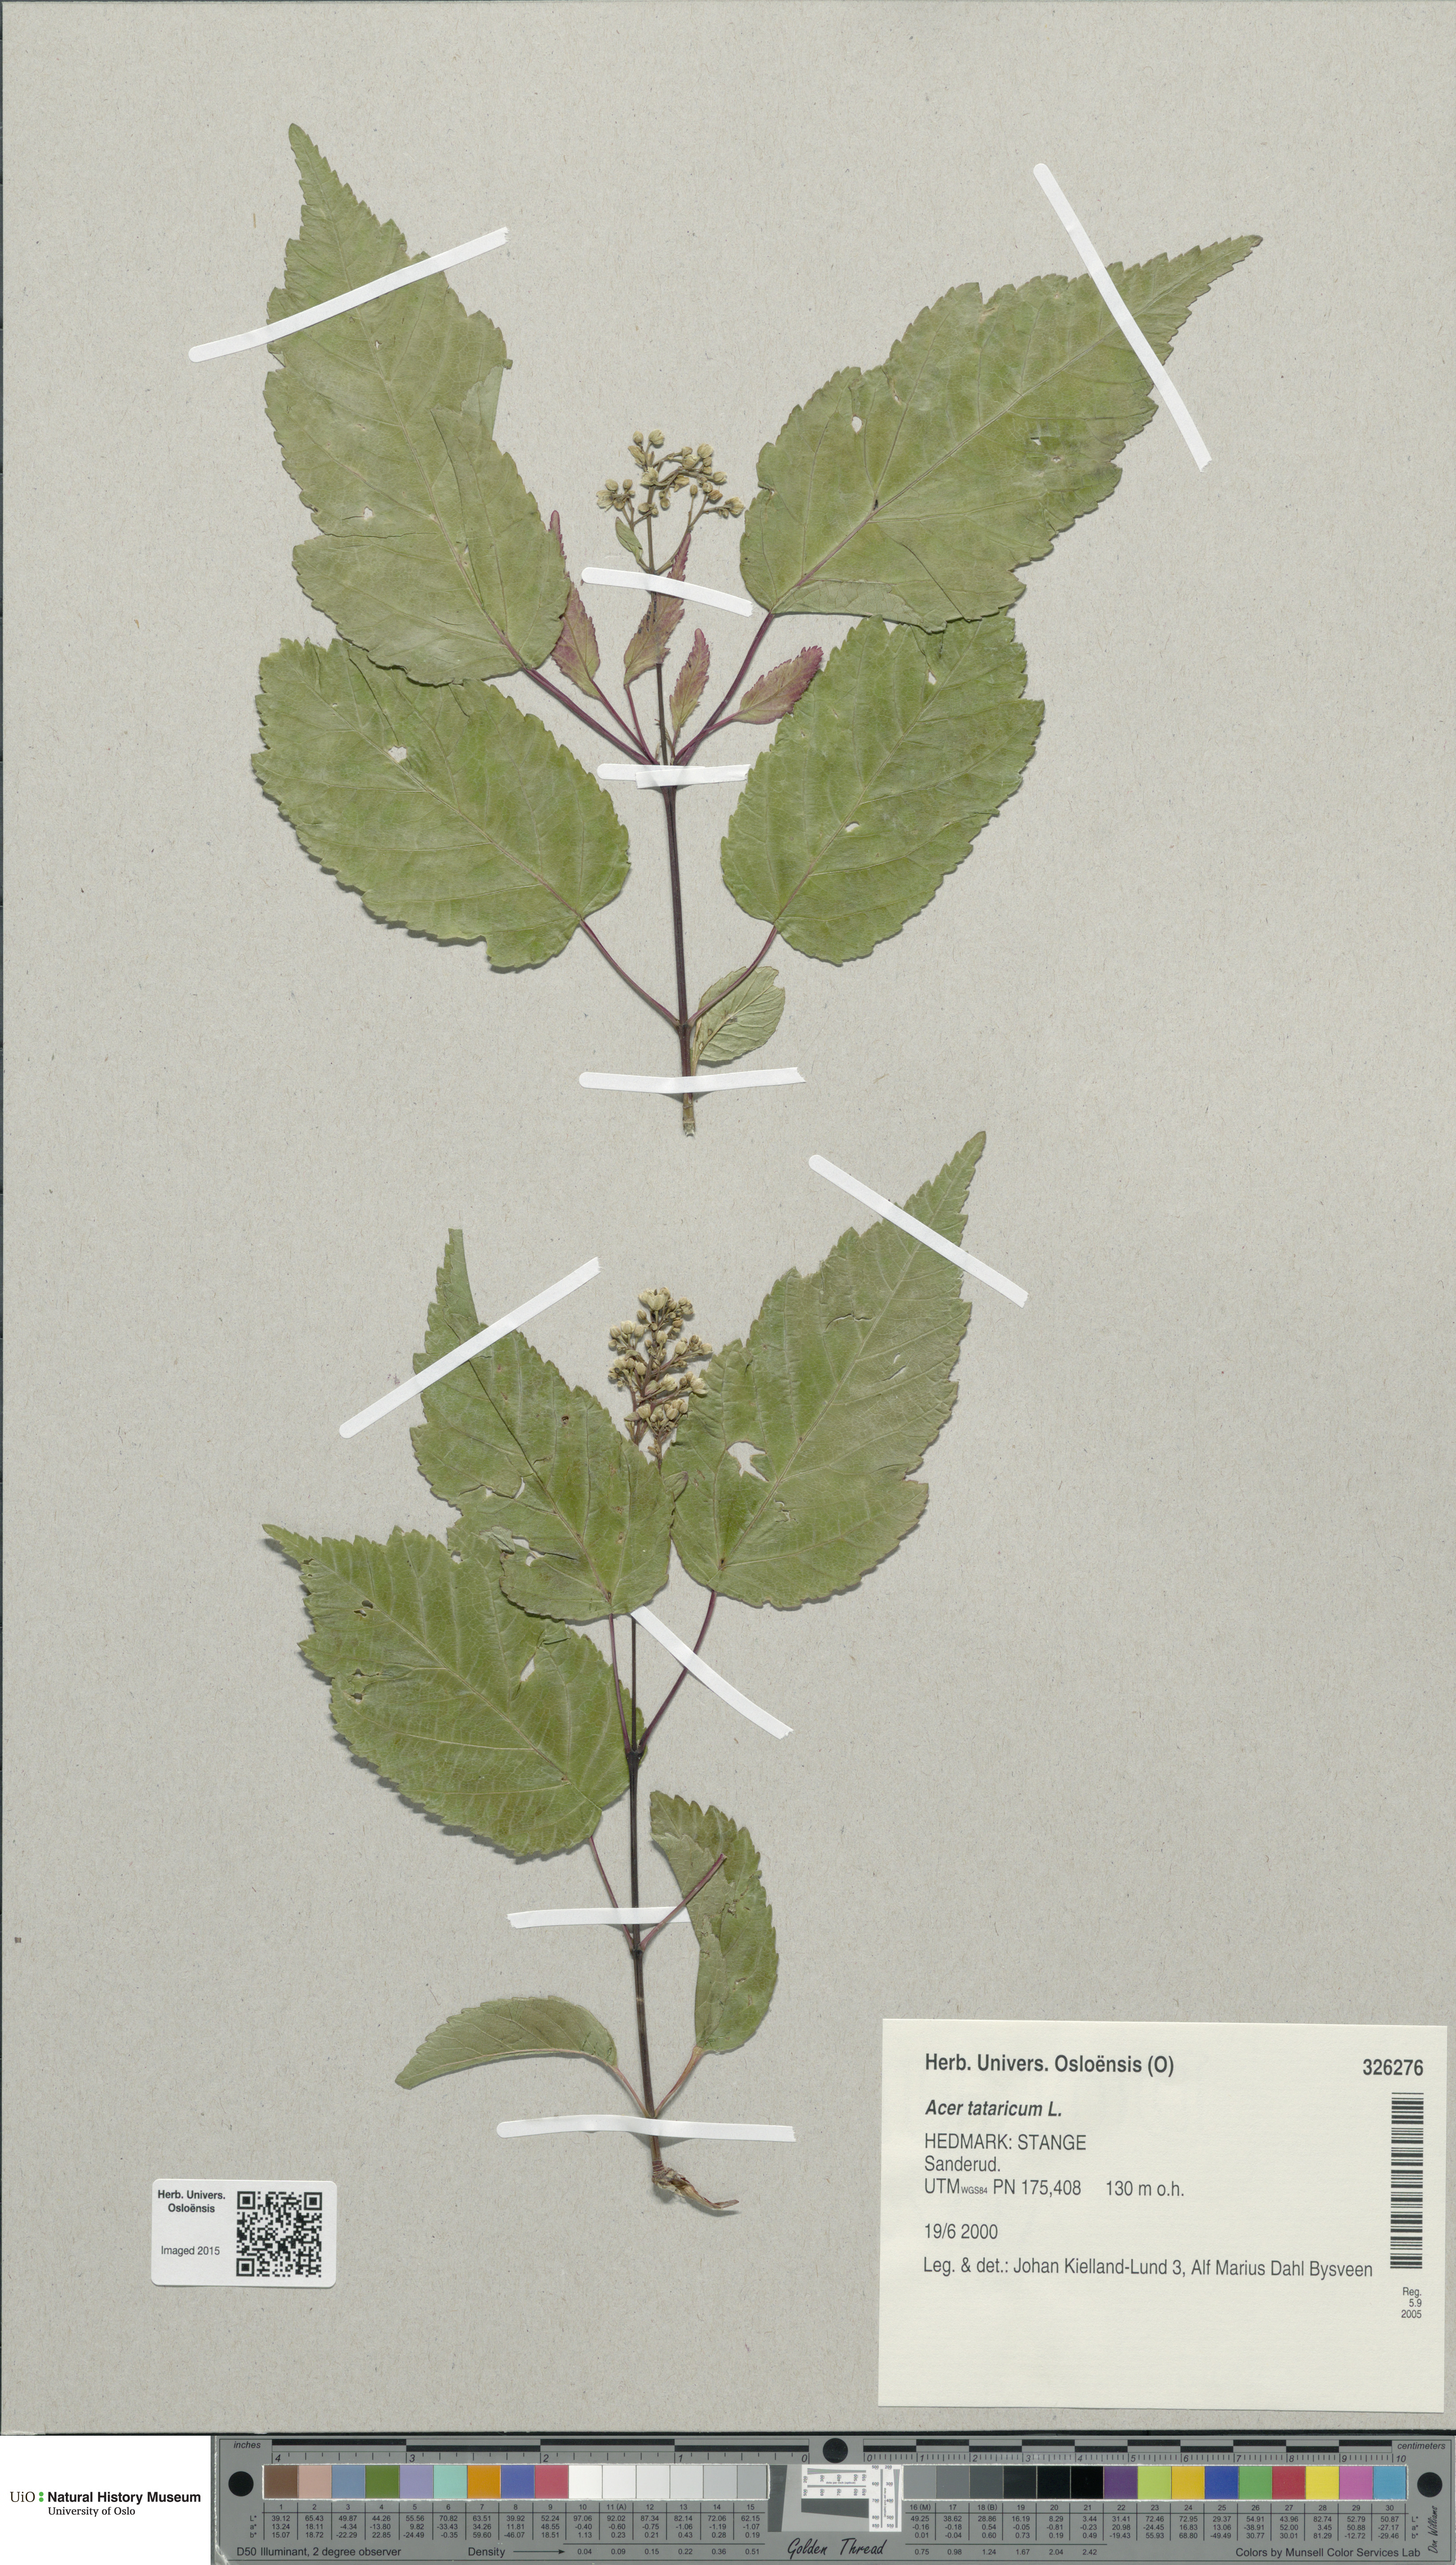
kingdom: Plantae
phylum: Tracheophyta
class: Magnoliopsida
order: Sapindales
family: Sapindaceae
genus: Acer
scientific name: Acer tataricum
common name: Tartar maple
